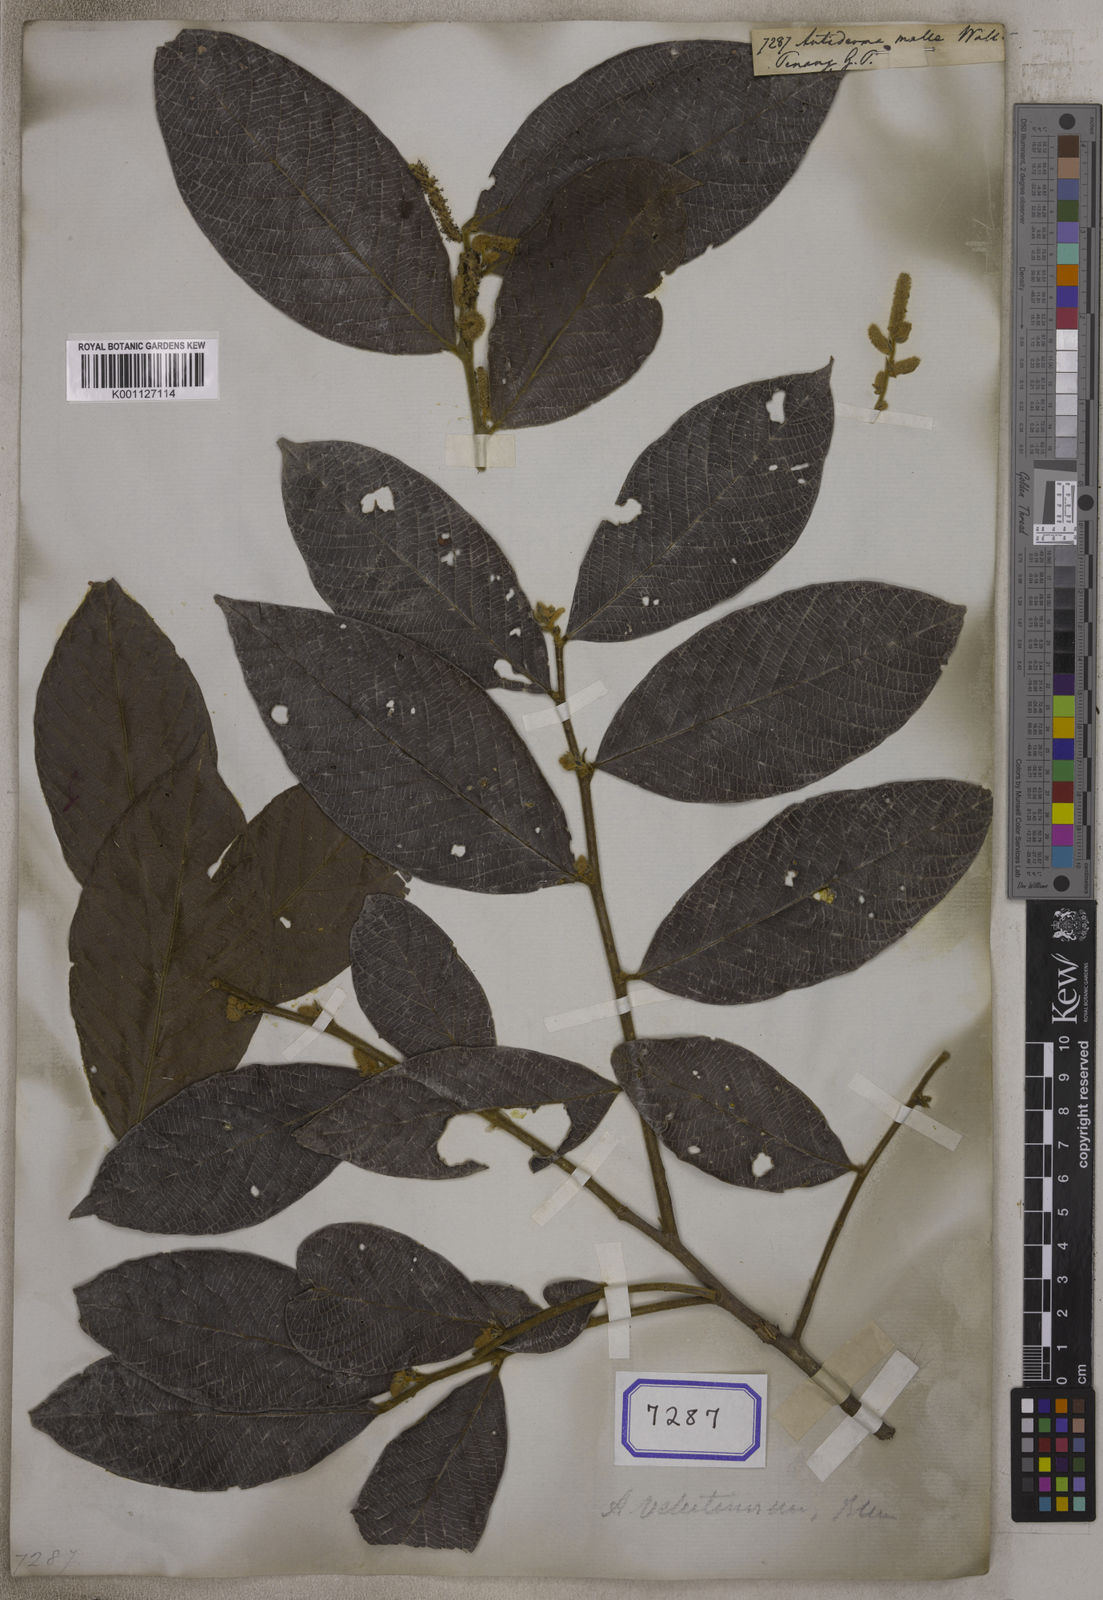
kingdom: Plantae
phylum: Tracheophyta
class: Magnoliopsida
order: Malpighiales
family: Phyllanthaceae
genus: Antidesma
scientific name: Antidesma
